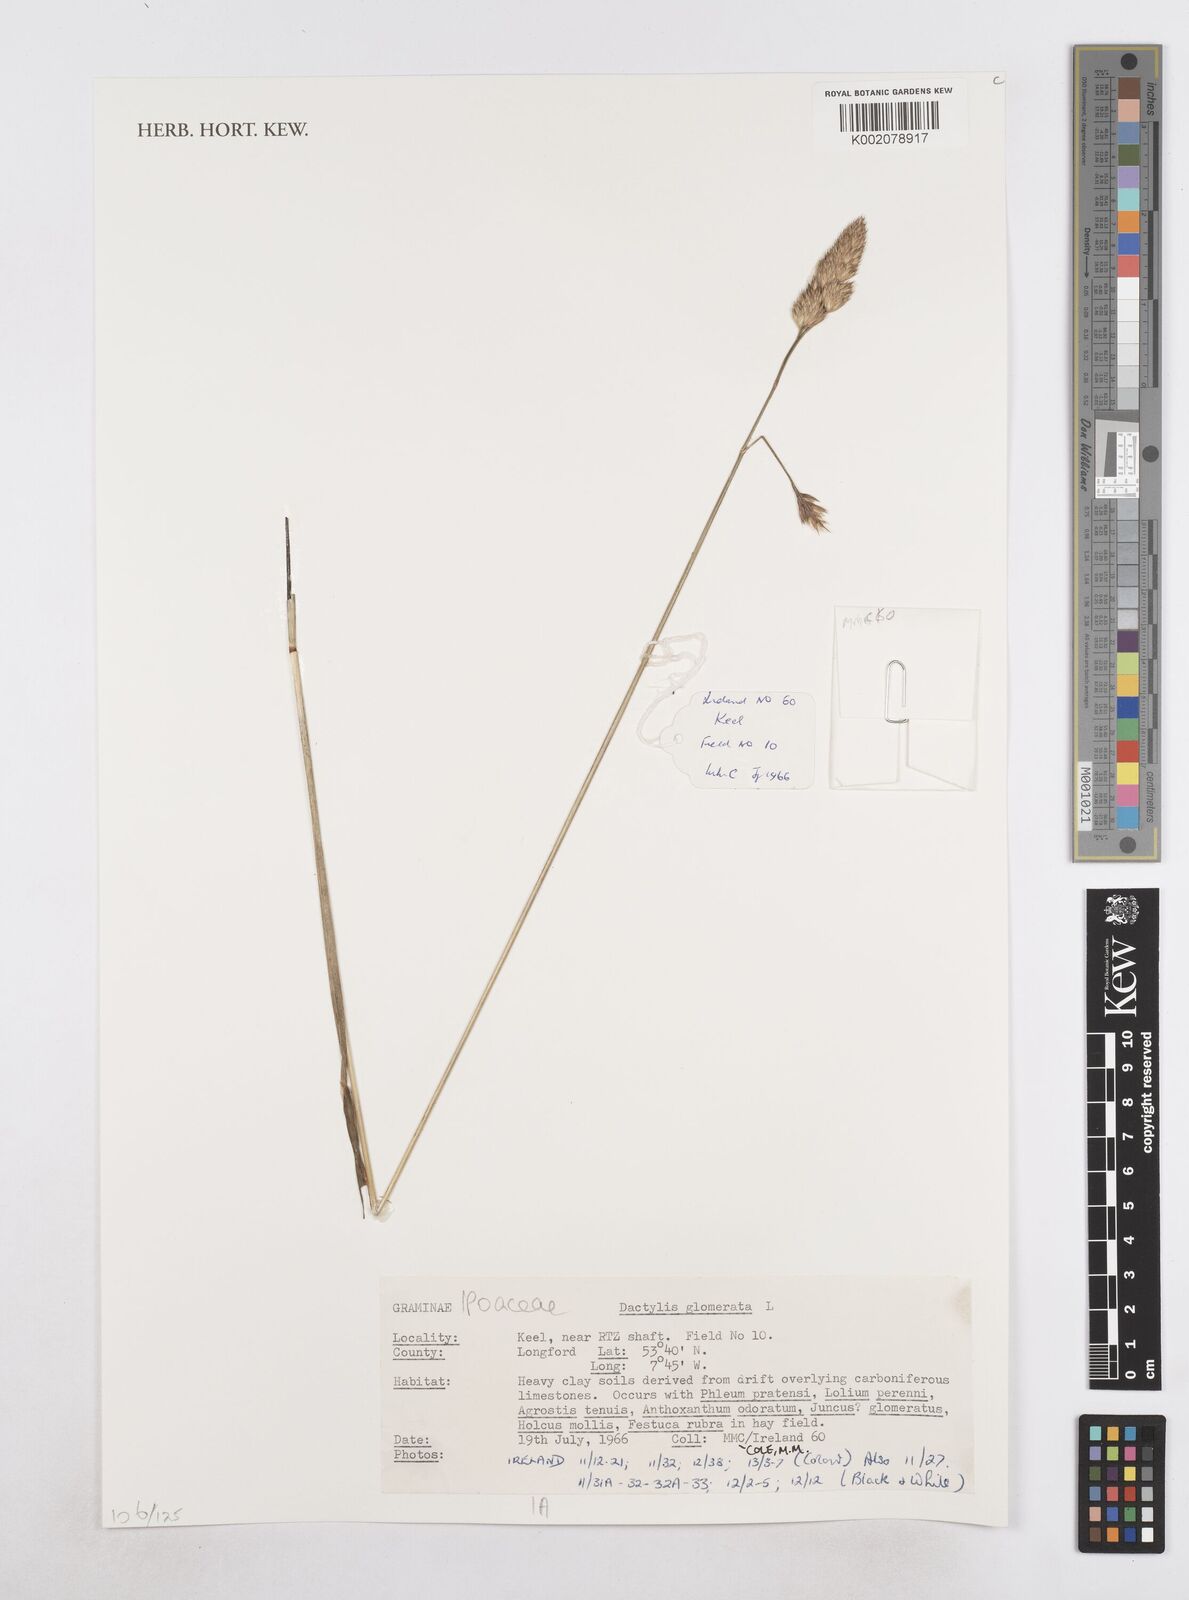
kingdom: Plantae
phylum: Tracheophyta
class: Liliopsida
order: Poales
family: Poaceae
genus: Dactylis
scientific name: Dactylis glomerata
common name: Orchardgrass
